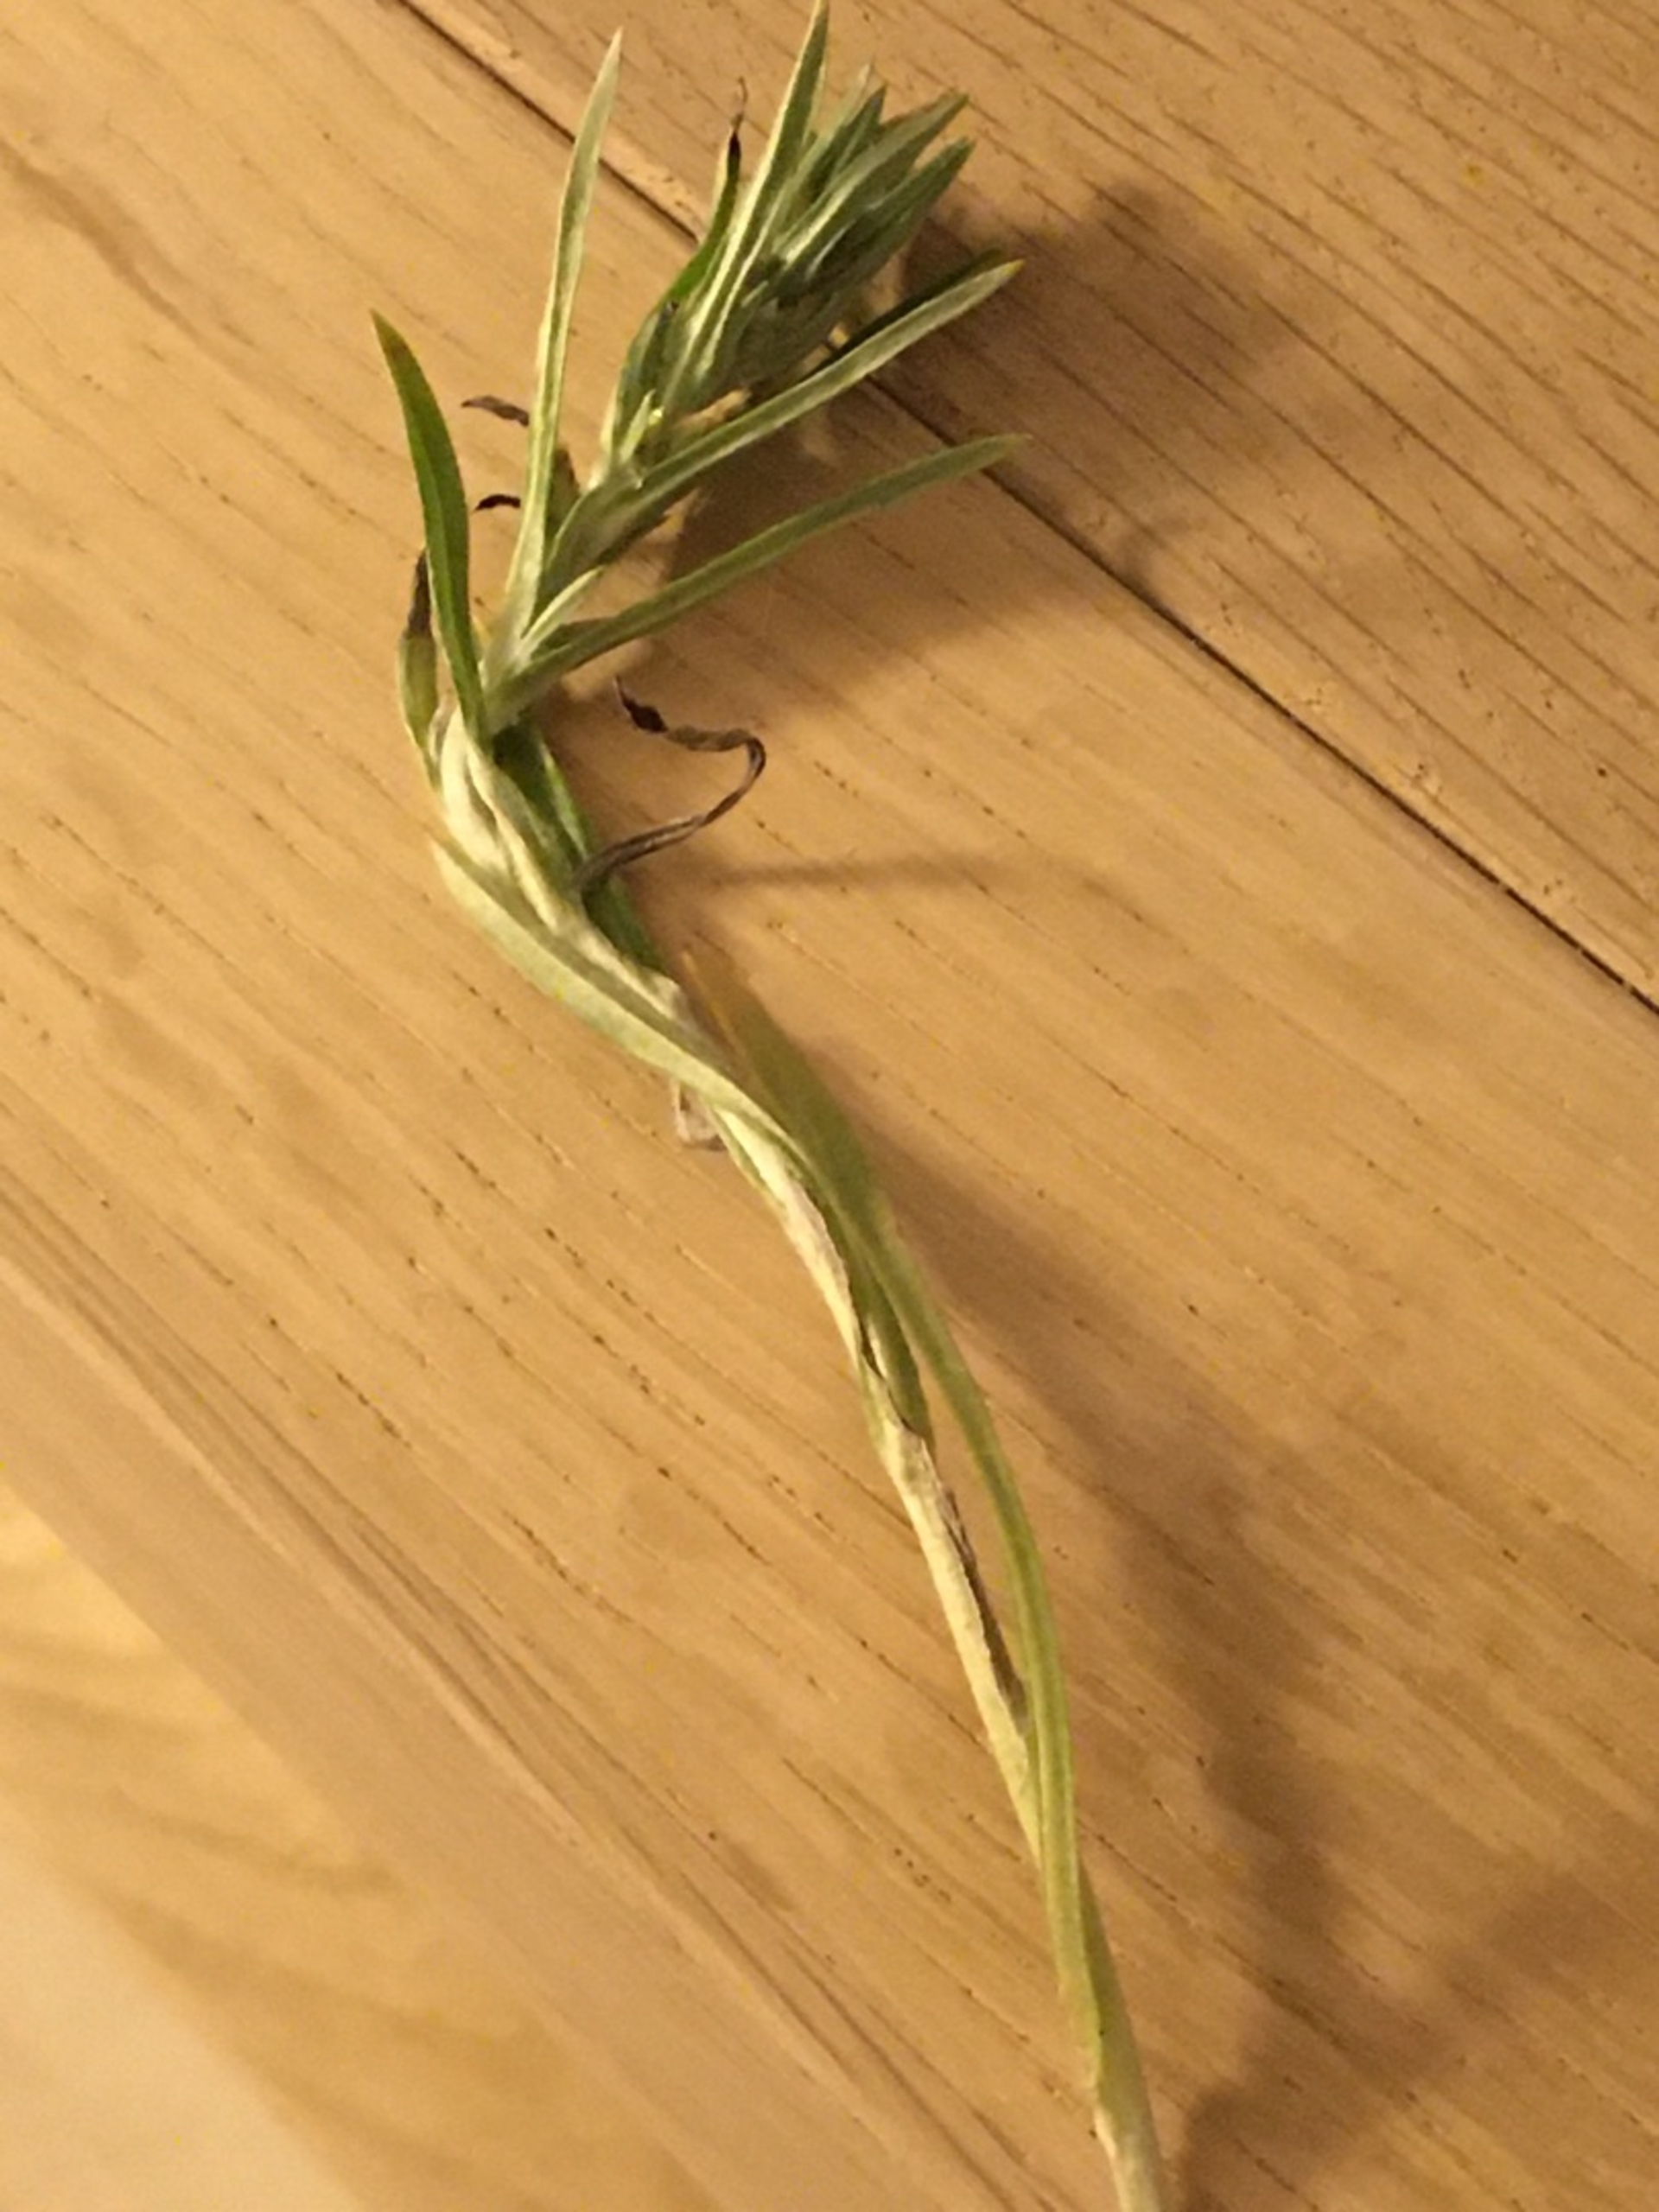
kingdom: Plantae
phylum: Tracheophyta
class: Magnoliopsida
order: Asterales
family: Asteraceae
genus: Omalotheca
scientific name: Omalotheca sylvatica
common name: Rank evighedsblomst
